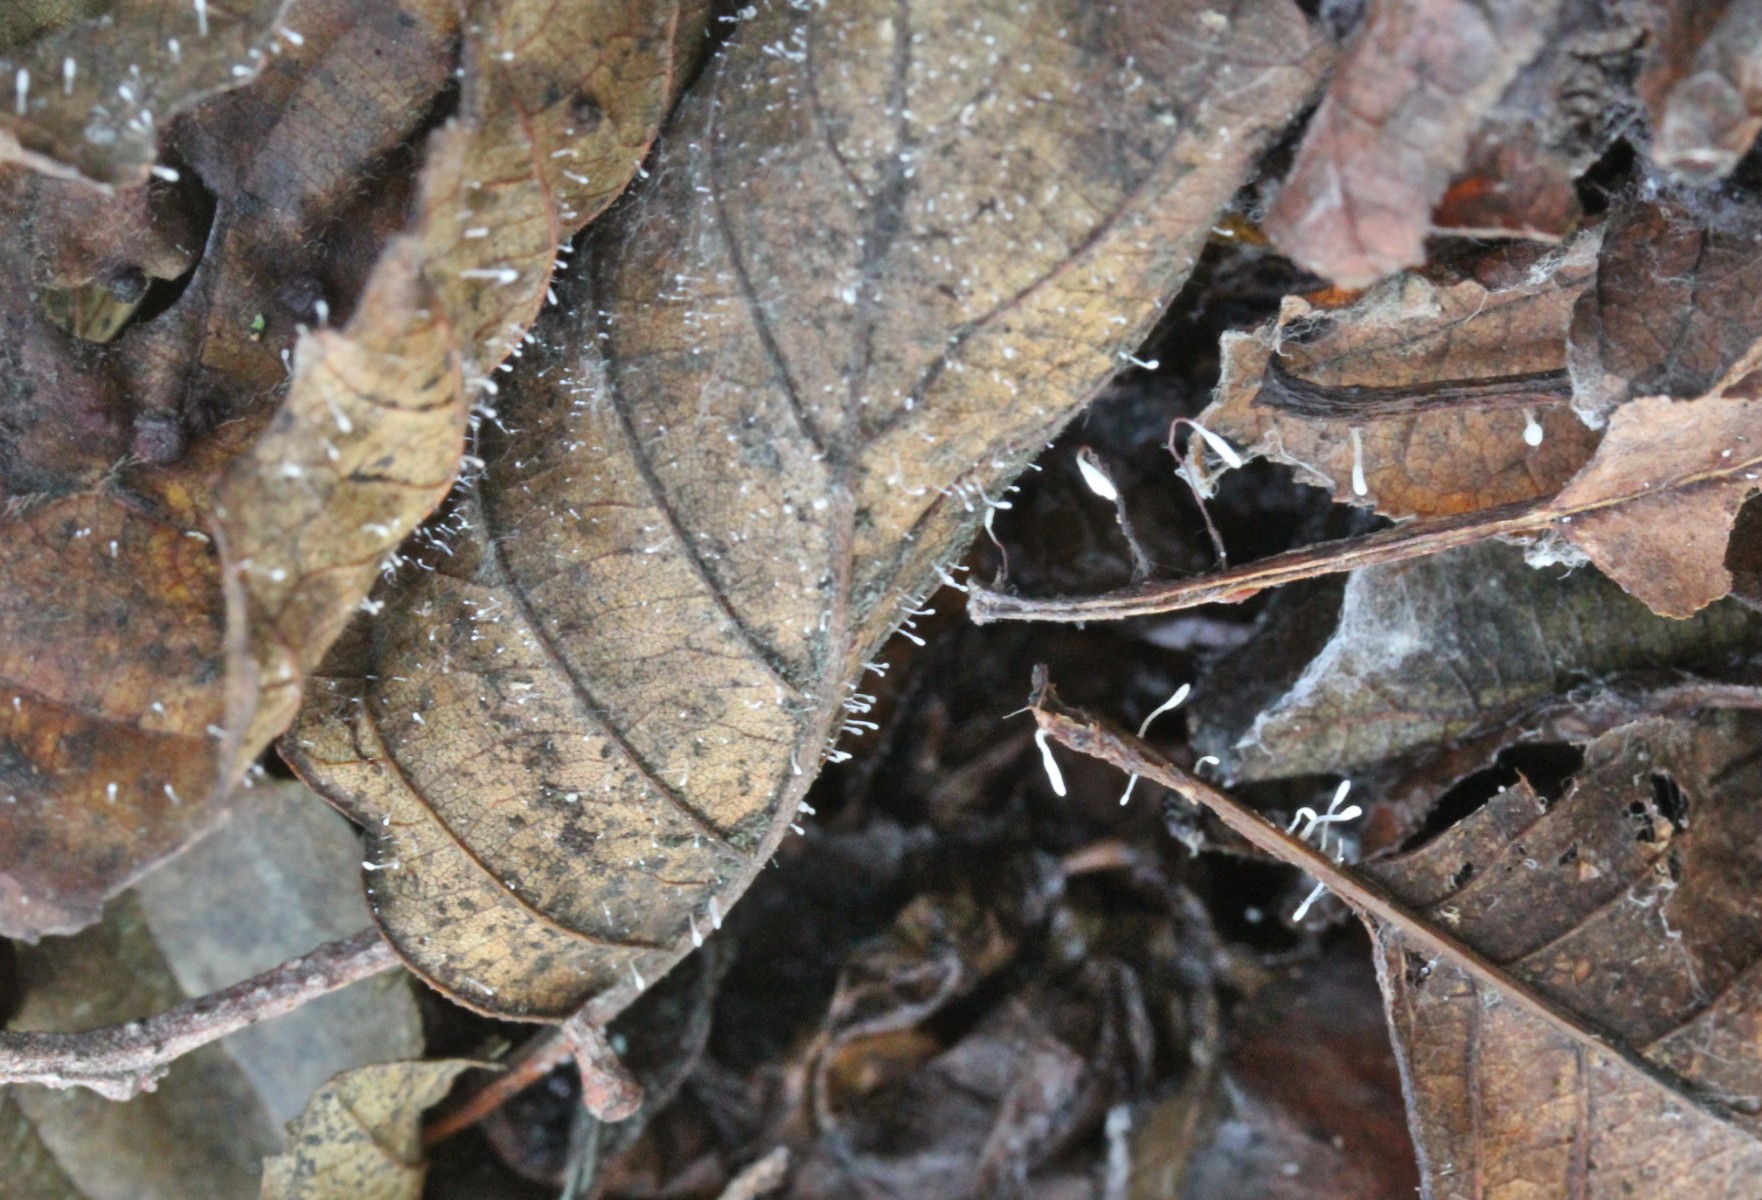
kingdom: Fungi
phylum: Basidiomycota
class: Agaricomycetes
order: Agaricales
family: Typhulaceae
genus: Typhula
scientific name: Typhula setipes
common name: liden trådkølle
